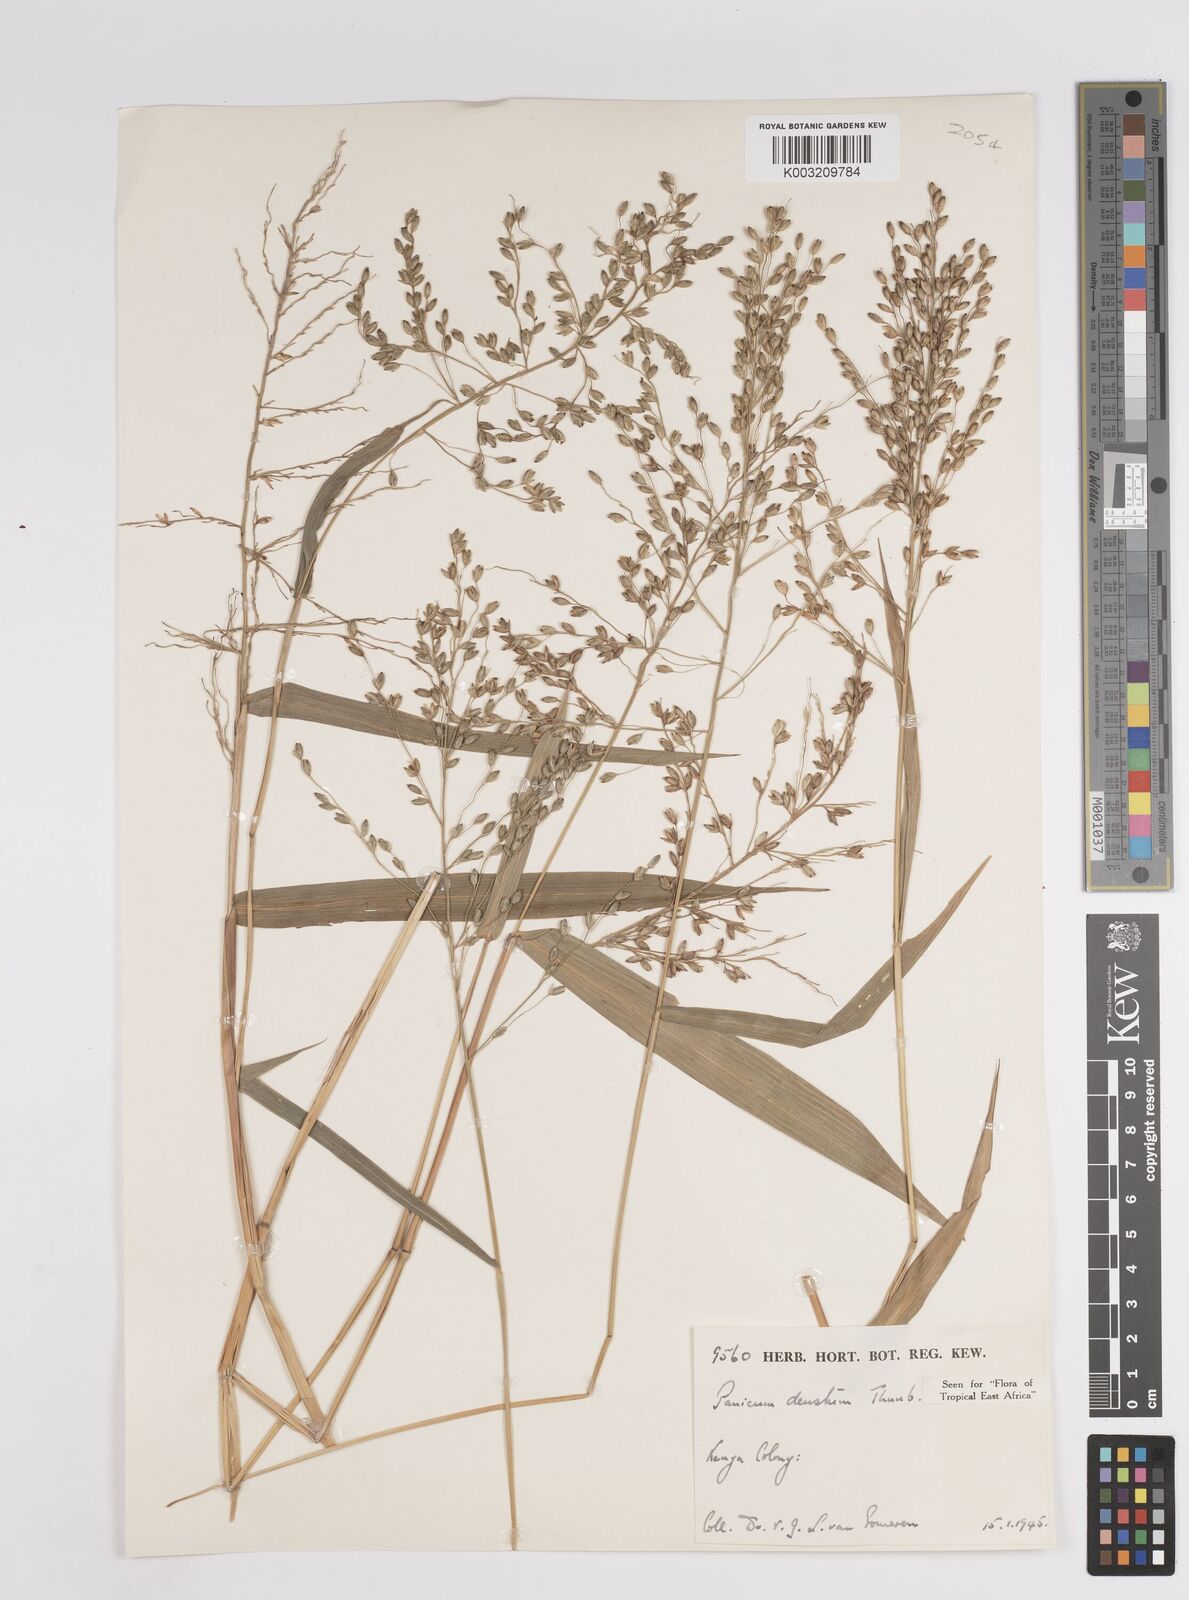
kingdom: Plantae
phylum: Tracheophyta
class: Liliopsida
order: Poales
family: Poaceae
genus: Panicum
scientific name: Panicum deustum
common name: Reed panicum
